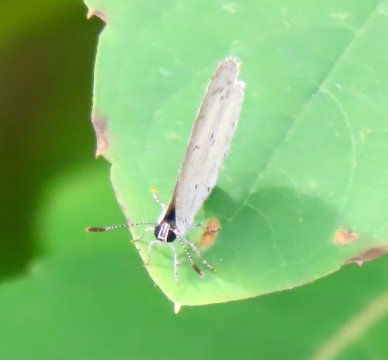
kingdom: Animalia
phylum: Arthropoda
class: Insecta
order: Lepidoptera
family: Lycaenidae
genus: Cyaniris
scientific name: Cyaniris neglecta
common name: Summer Azure
